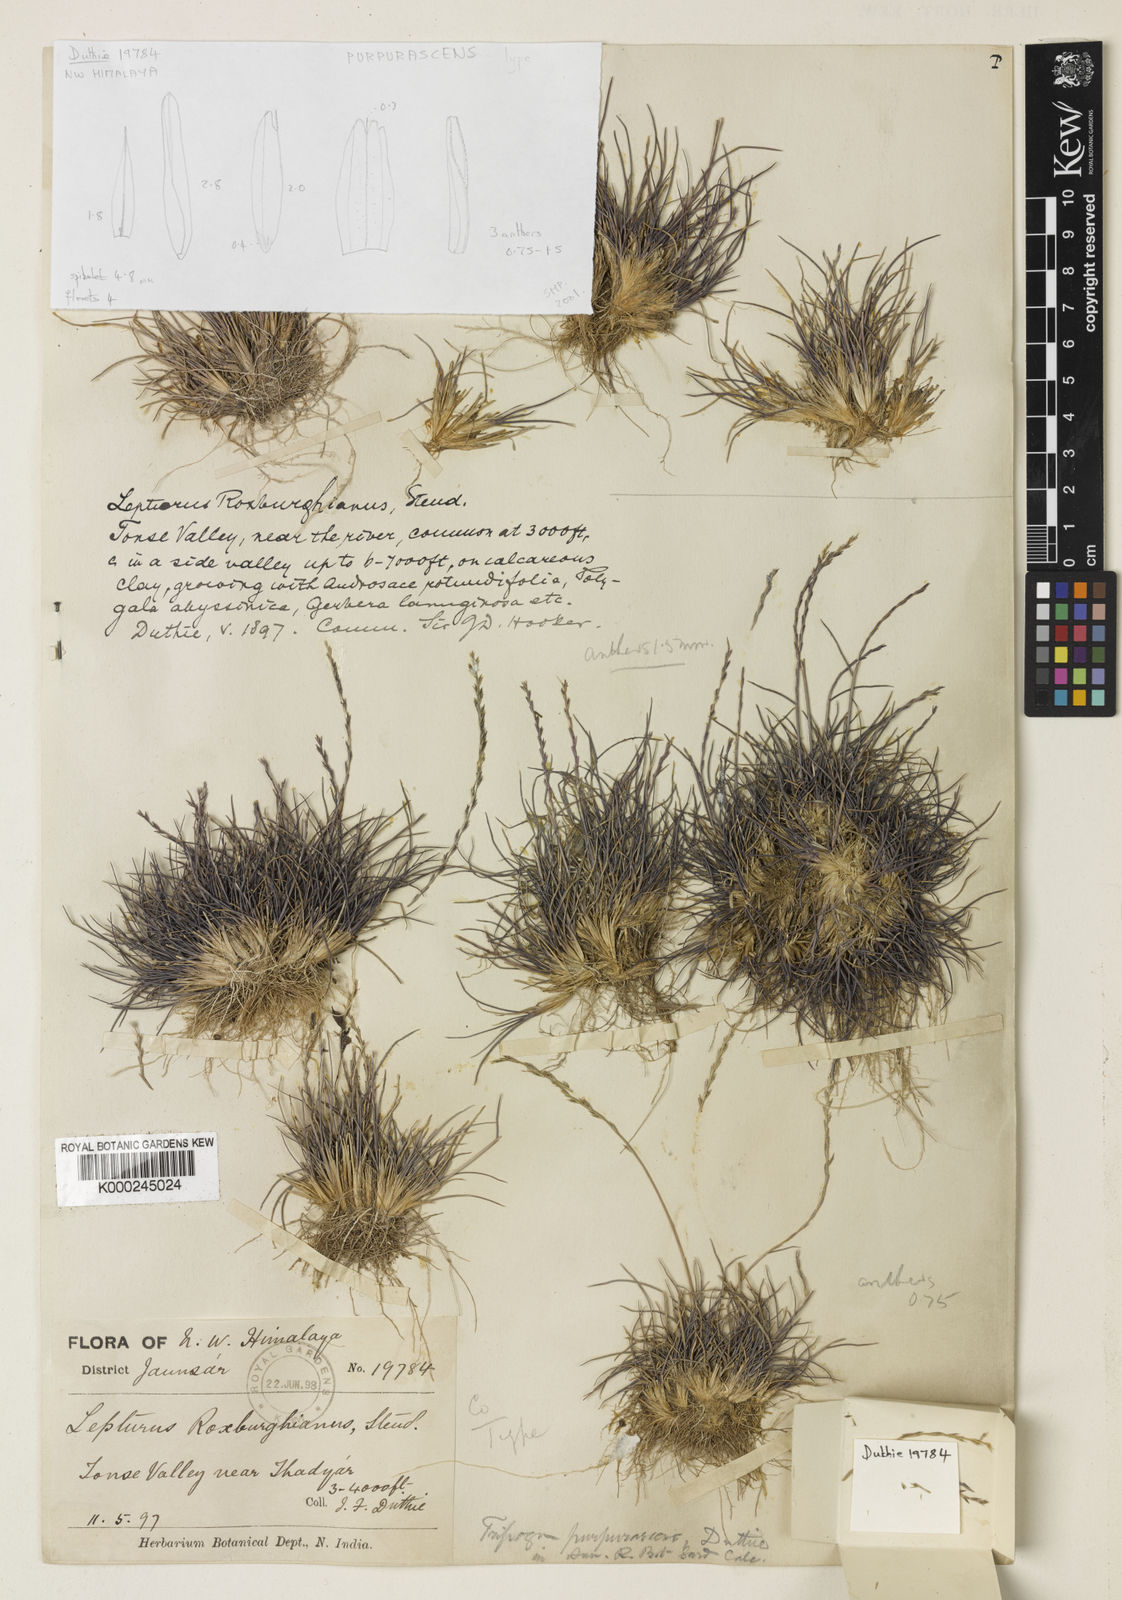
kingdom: Plantae
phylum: Tracheophyta
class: Liliopsida
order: Poales
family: Poaceae
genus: Tripogon
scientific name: Tripogon purpurascens
